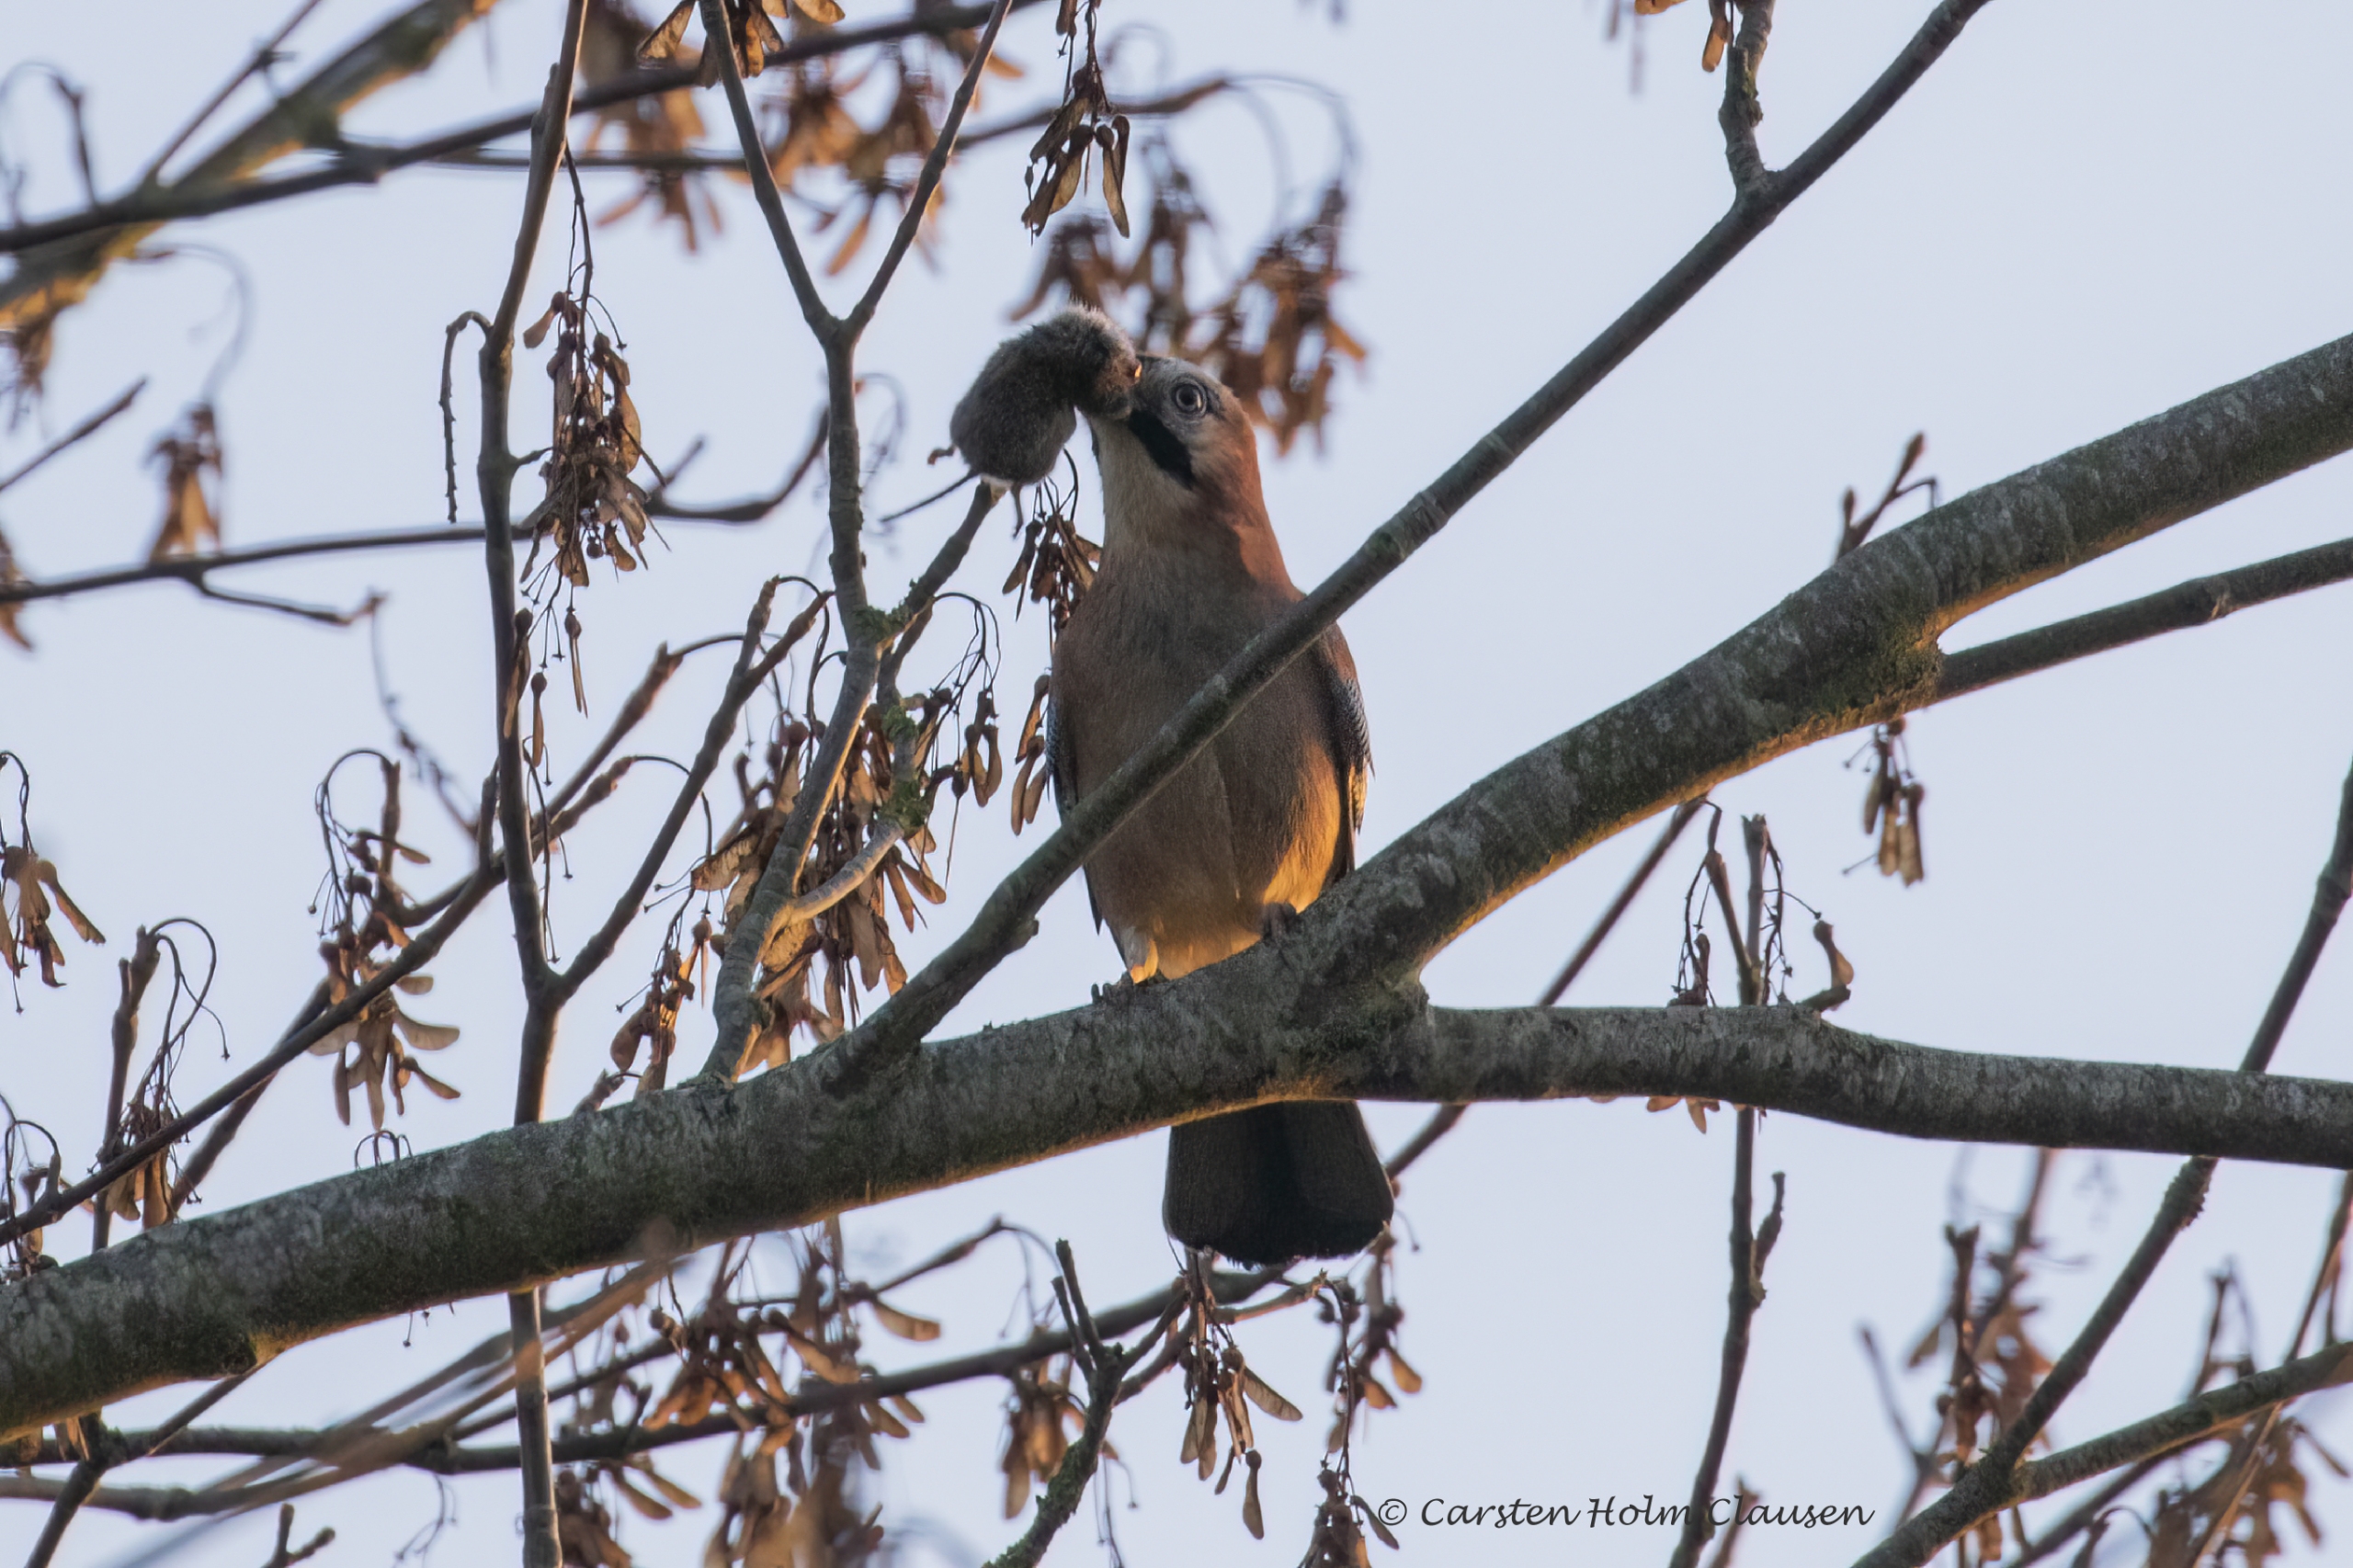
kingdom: Animalia
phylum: Chordata
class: Aves
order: Passeriformes
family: Corvidae
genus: Garrulus
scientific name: Garrulus glandarius
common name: Skovskade
